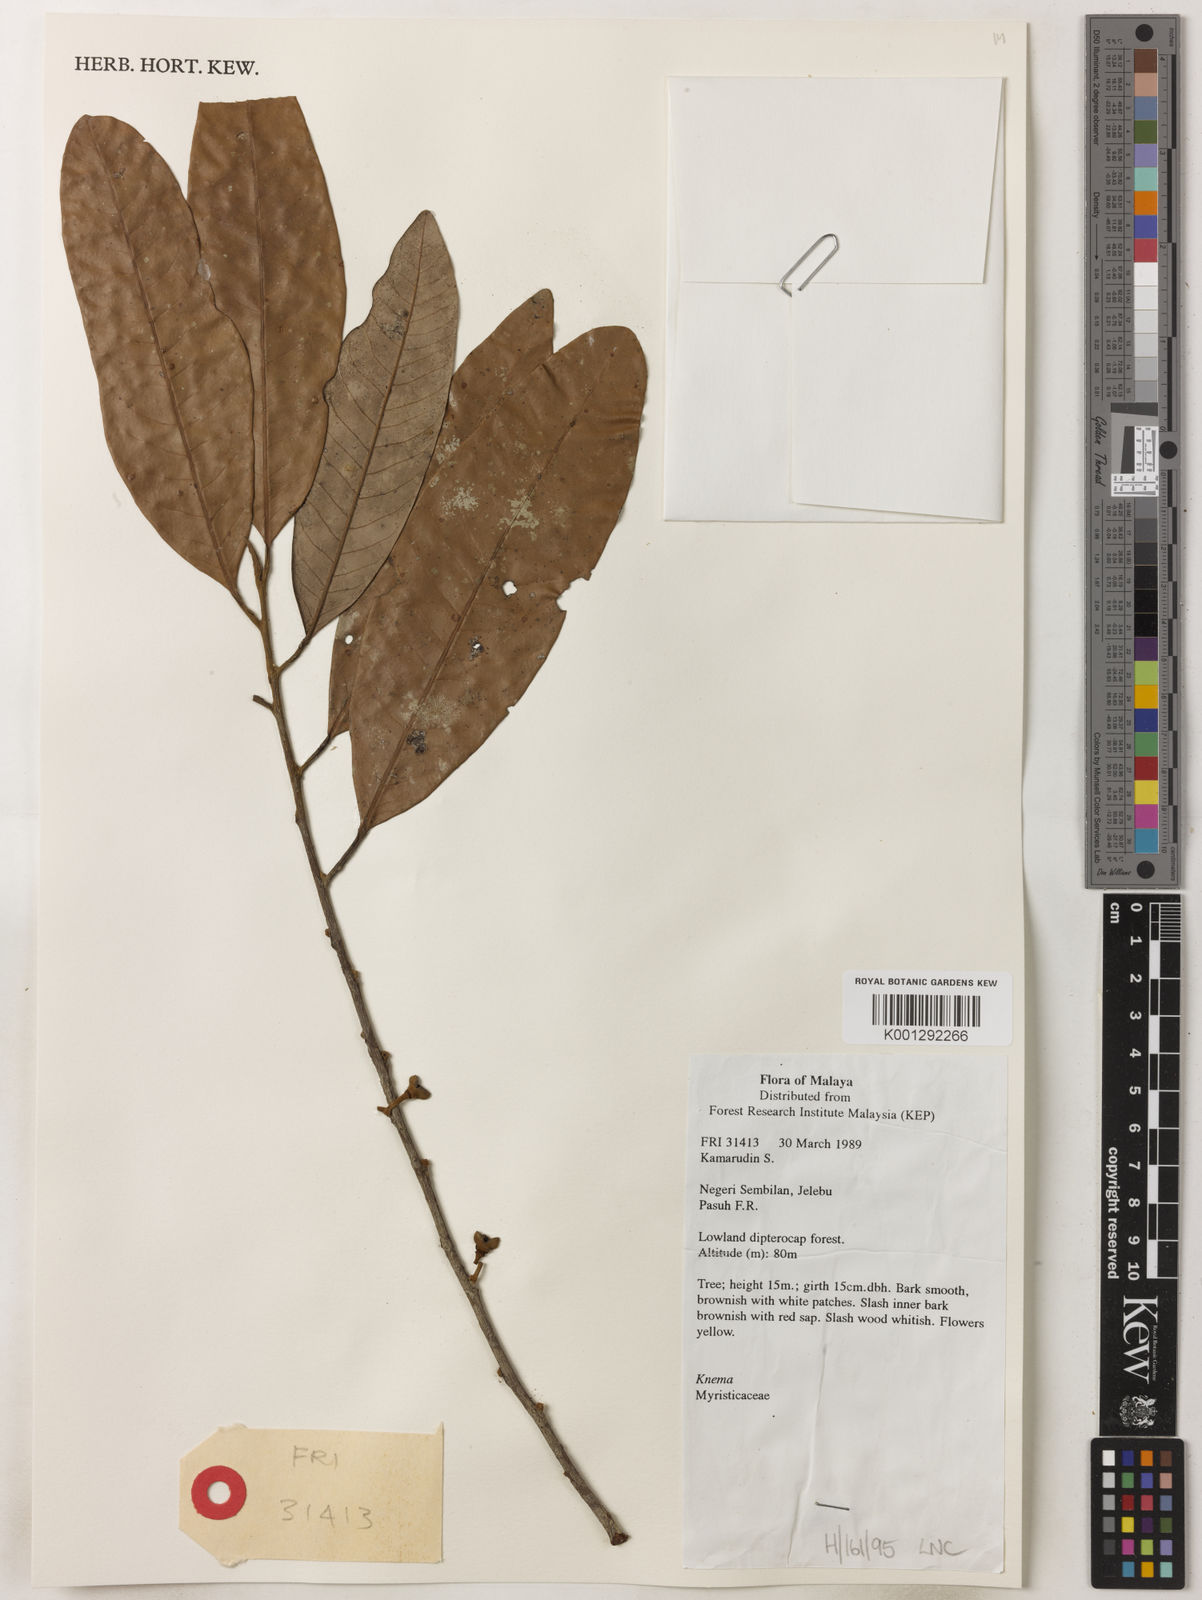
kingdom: Plantae
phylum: Tracheophyta
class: Magnoliopsida
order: Magnoliales
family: Myristicaceae
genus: Knema
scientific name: Knema
